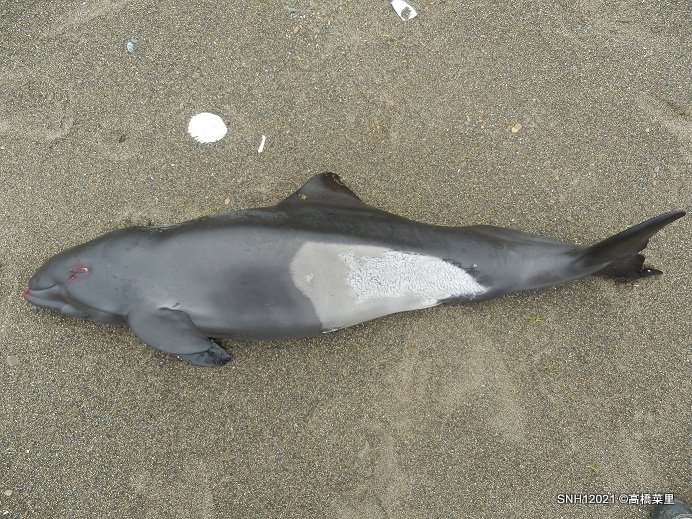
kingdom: Animalia
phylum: Chordata
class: Mammalia
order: Cetacea
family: Phocoenidae
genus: Phocoenoides
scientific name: Phocoenoides dalli
